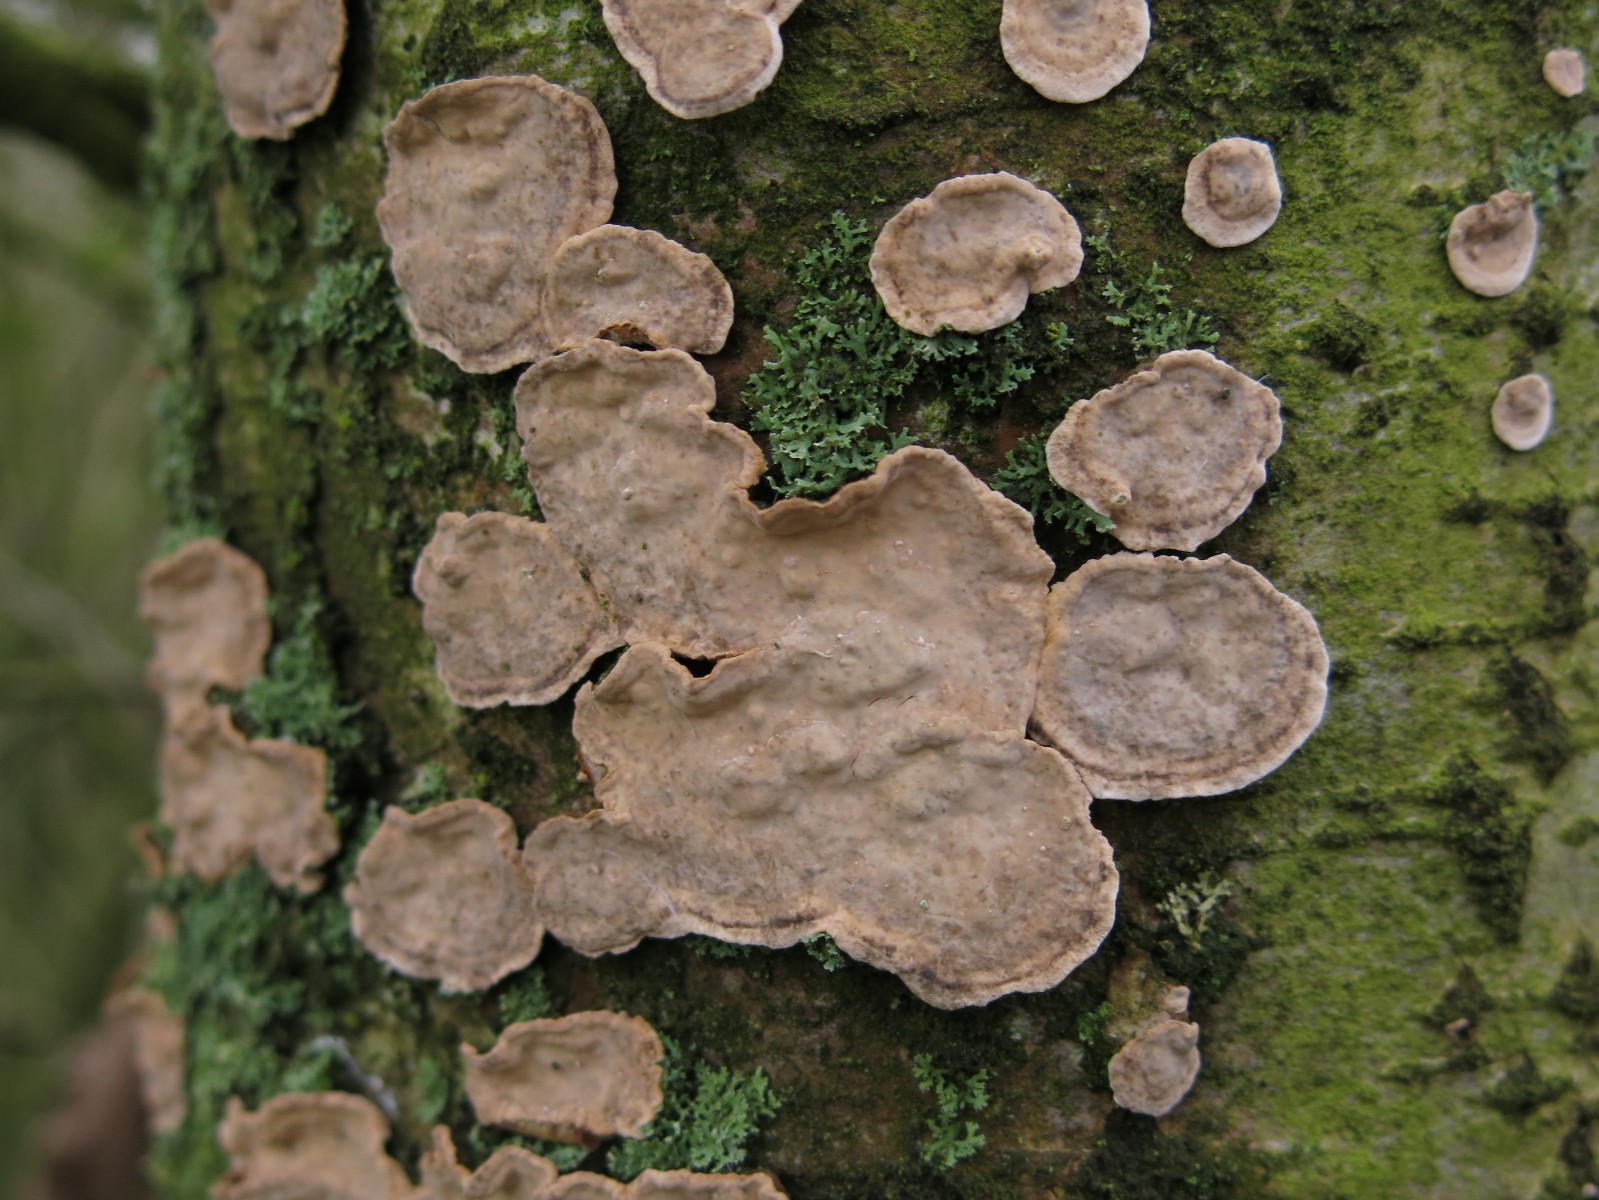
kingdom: Fungi
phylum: Basidiomycota
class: Agaricomycetes
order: Russulales
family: Stereaceae
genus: Stereum
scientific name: Stereum rugosum
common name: rynket lædersvamp
